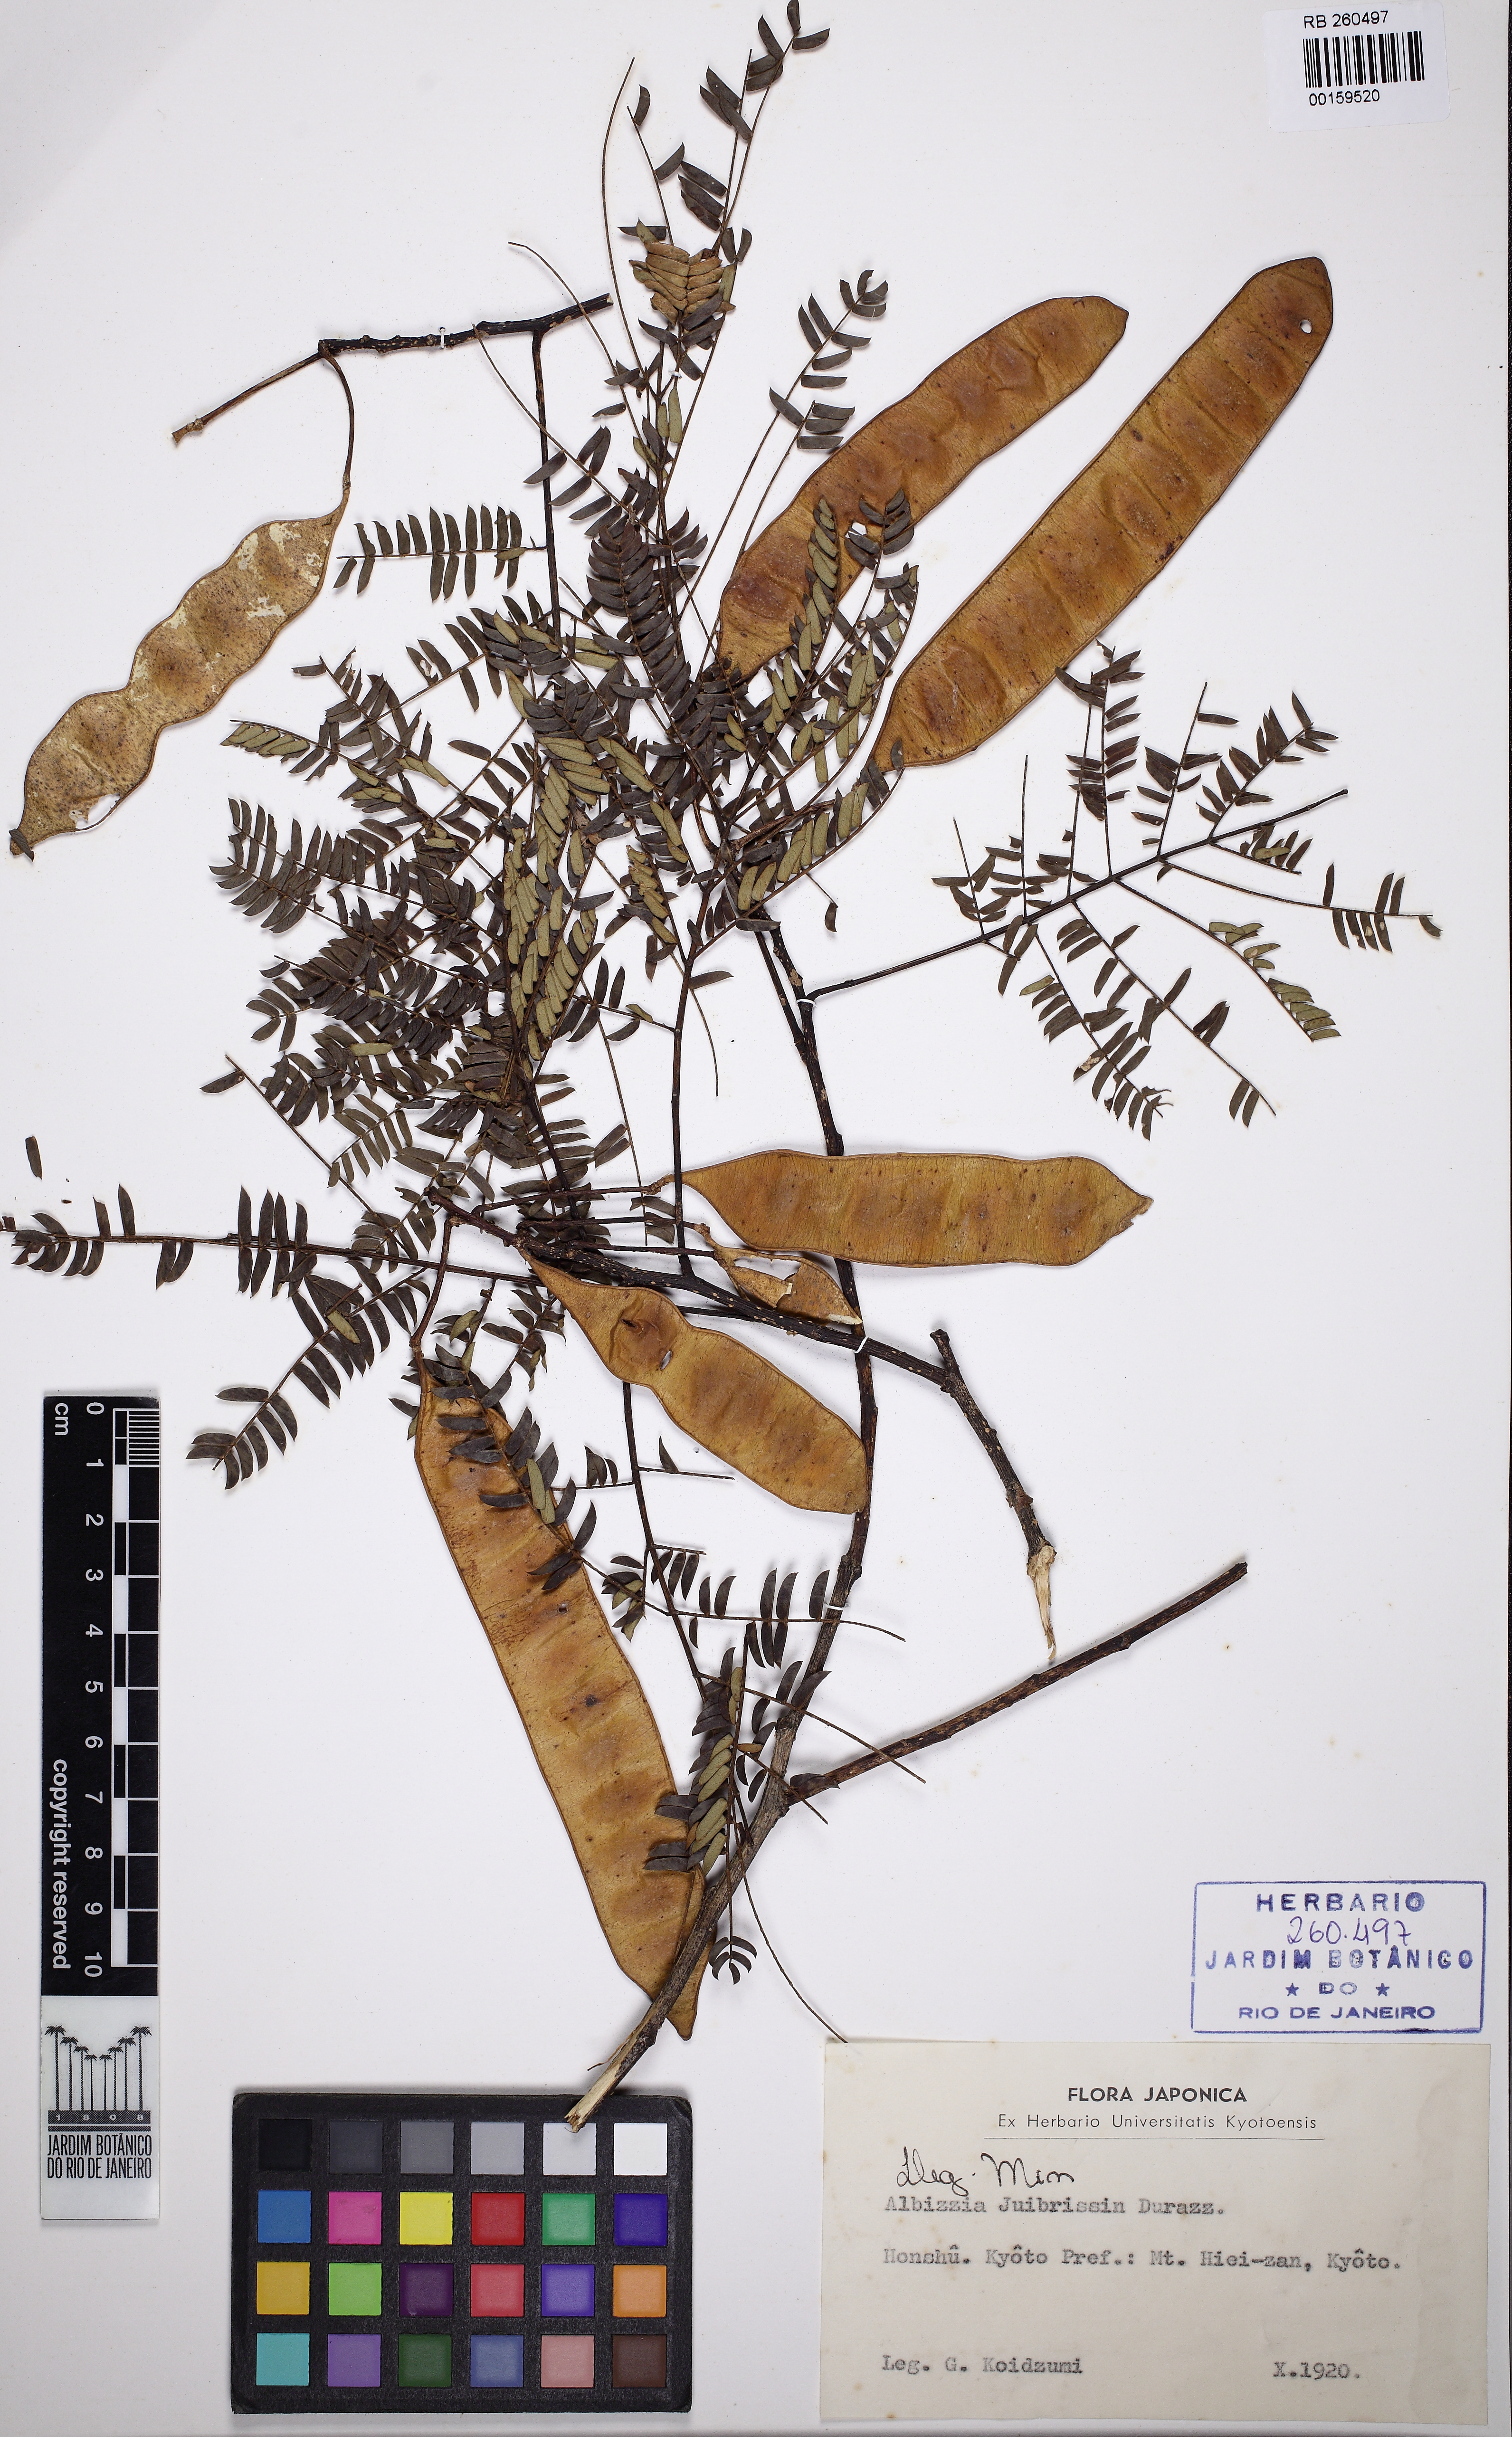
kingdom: Plantae
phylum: Tracheophyta
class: Magnoliopsida
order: Fabales
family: Fabaceae
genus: Albizia
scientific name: Albizia julibrissin
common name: Silktree
